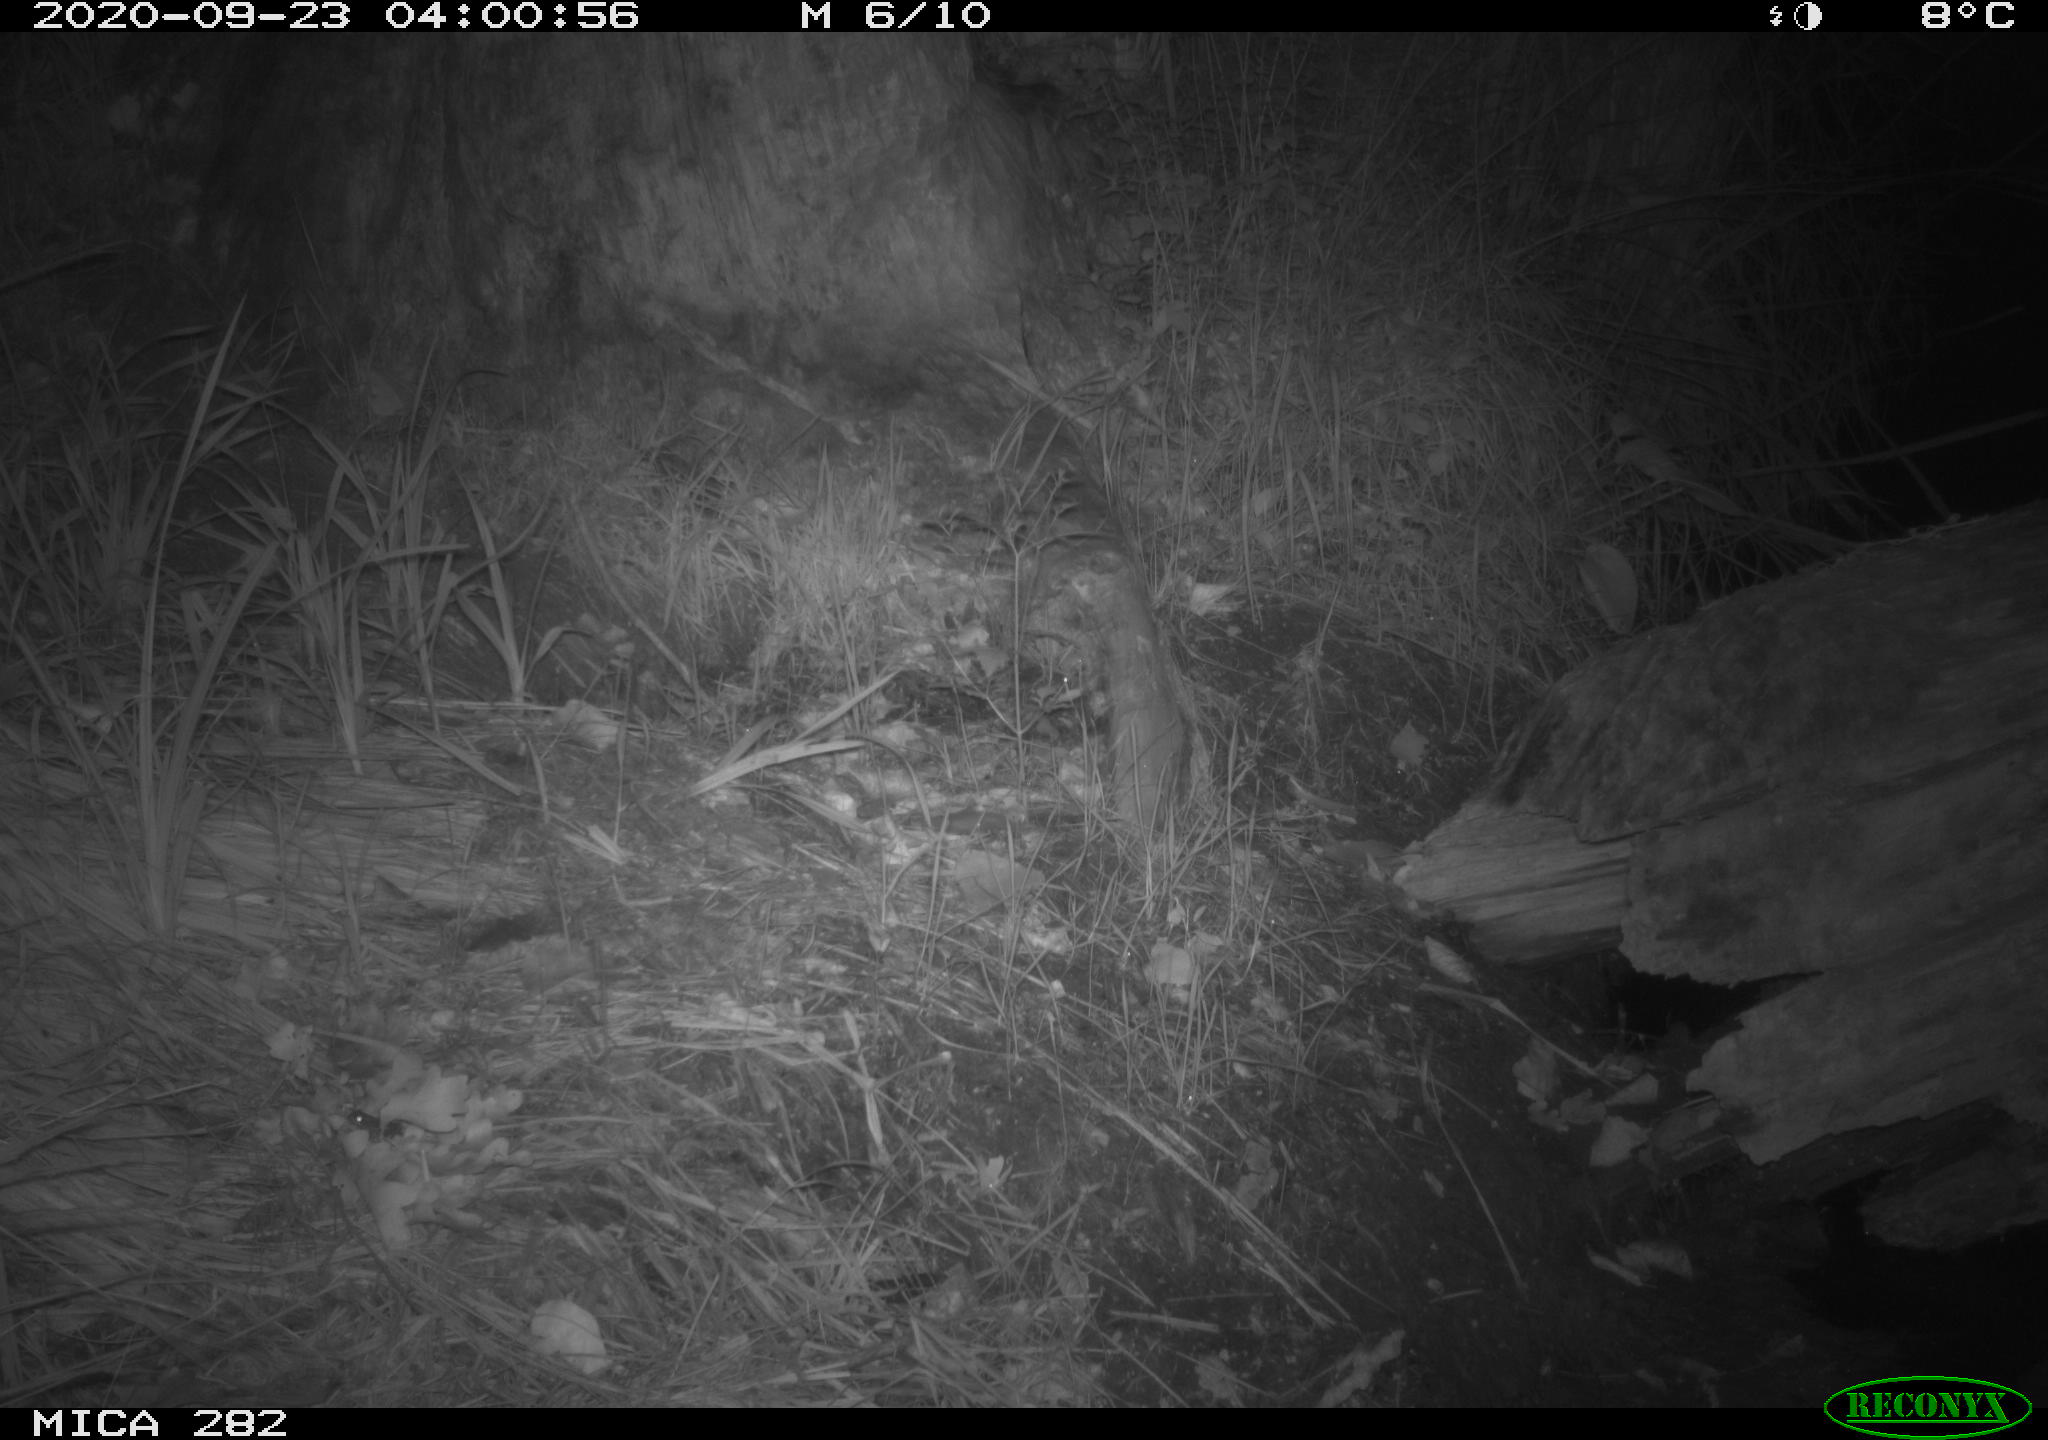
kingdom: Animalia
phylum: Chordata
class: Mammalia
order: Soricomorpha
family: Soricidae
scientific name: Soricidae
